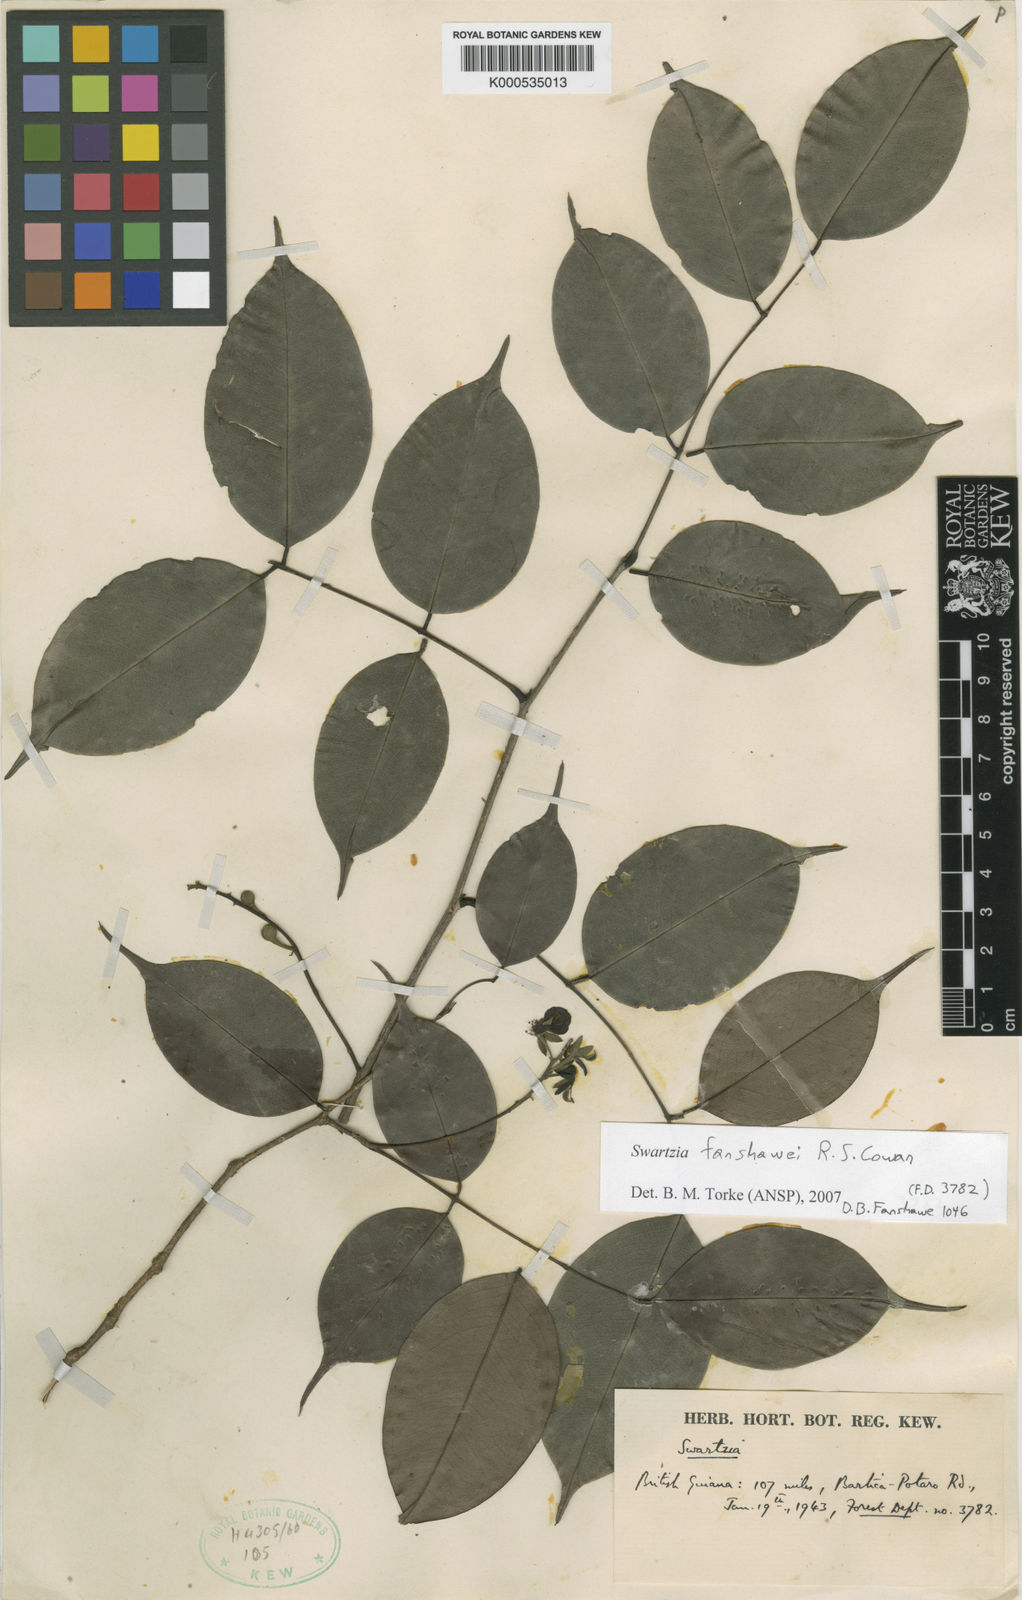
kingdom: Plantae
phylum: Tracheophyta
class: Magnoliopsida
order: Fabales
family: Fabaceae
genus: Swartzia
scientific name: Swartzia fanshawei
